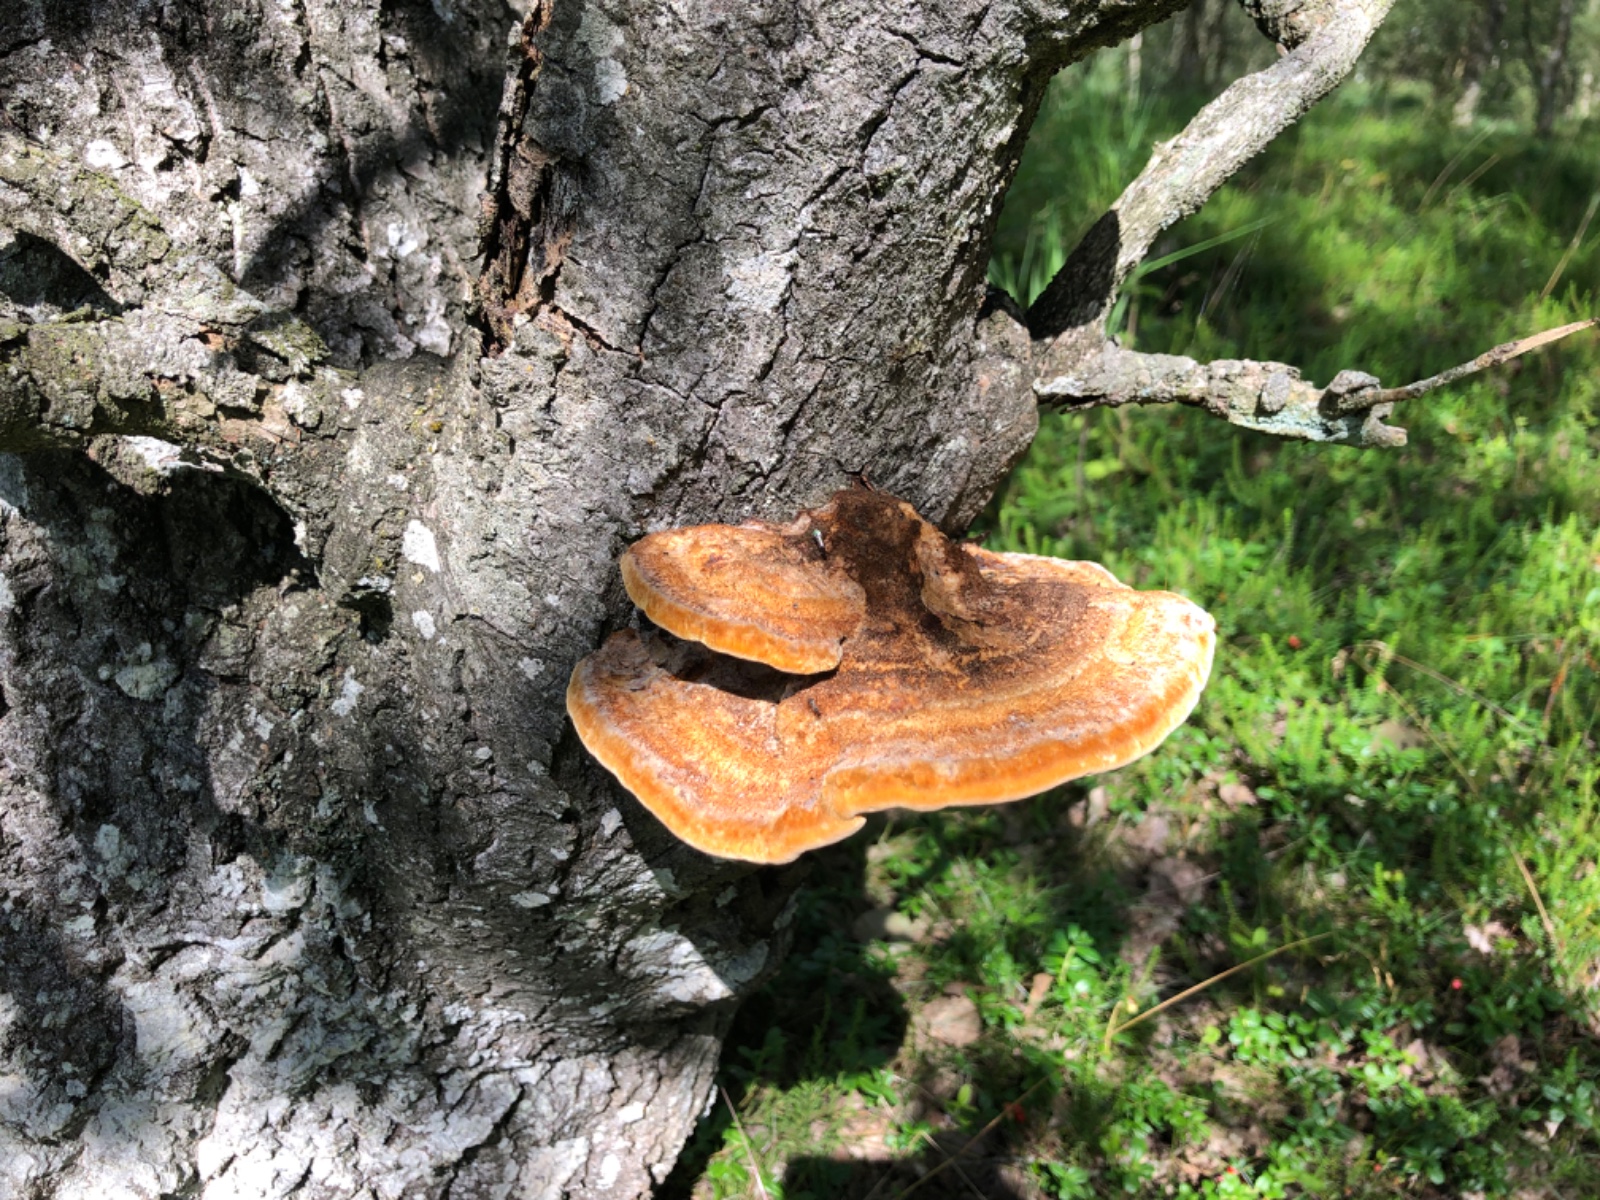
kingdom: Fungi
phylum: Basidiomycota
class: Agaricomycetes
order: Hymenochaetales
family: Hymenochaetaceae
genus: Inocutis
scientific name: Inocutis rheades
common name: ræve-spejlporesvamp
